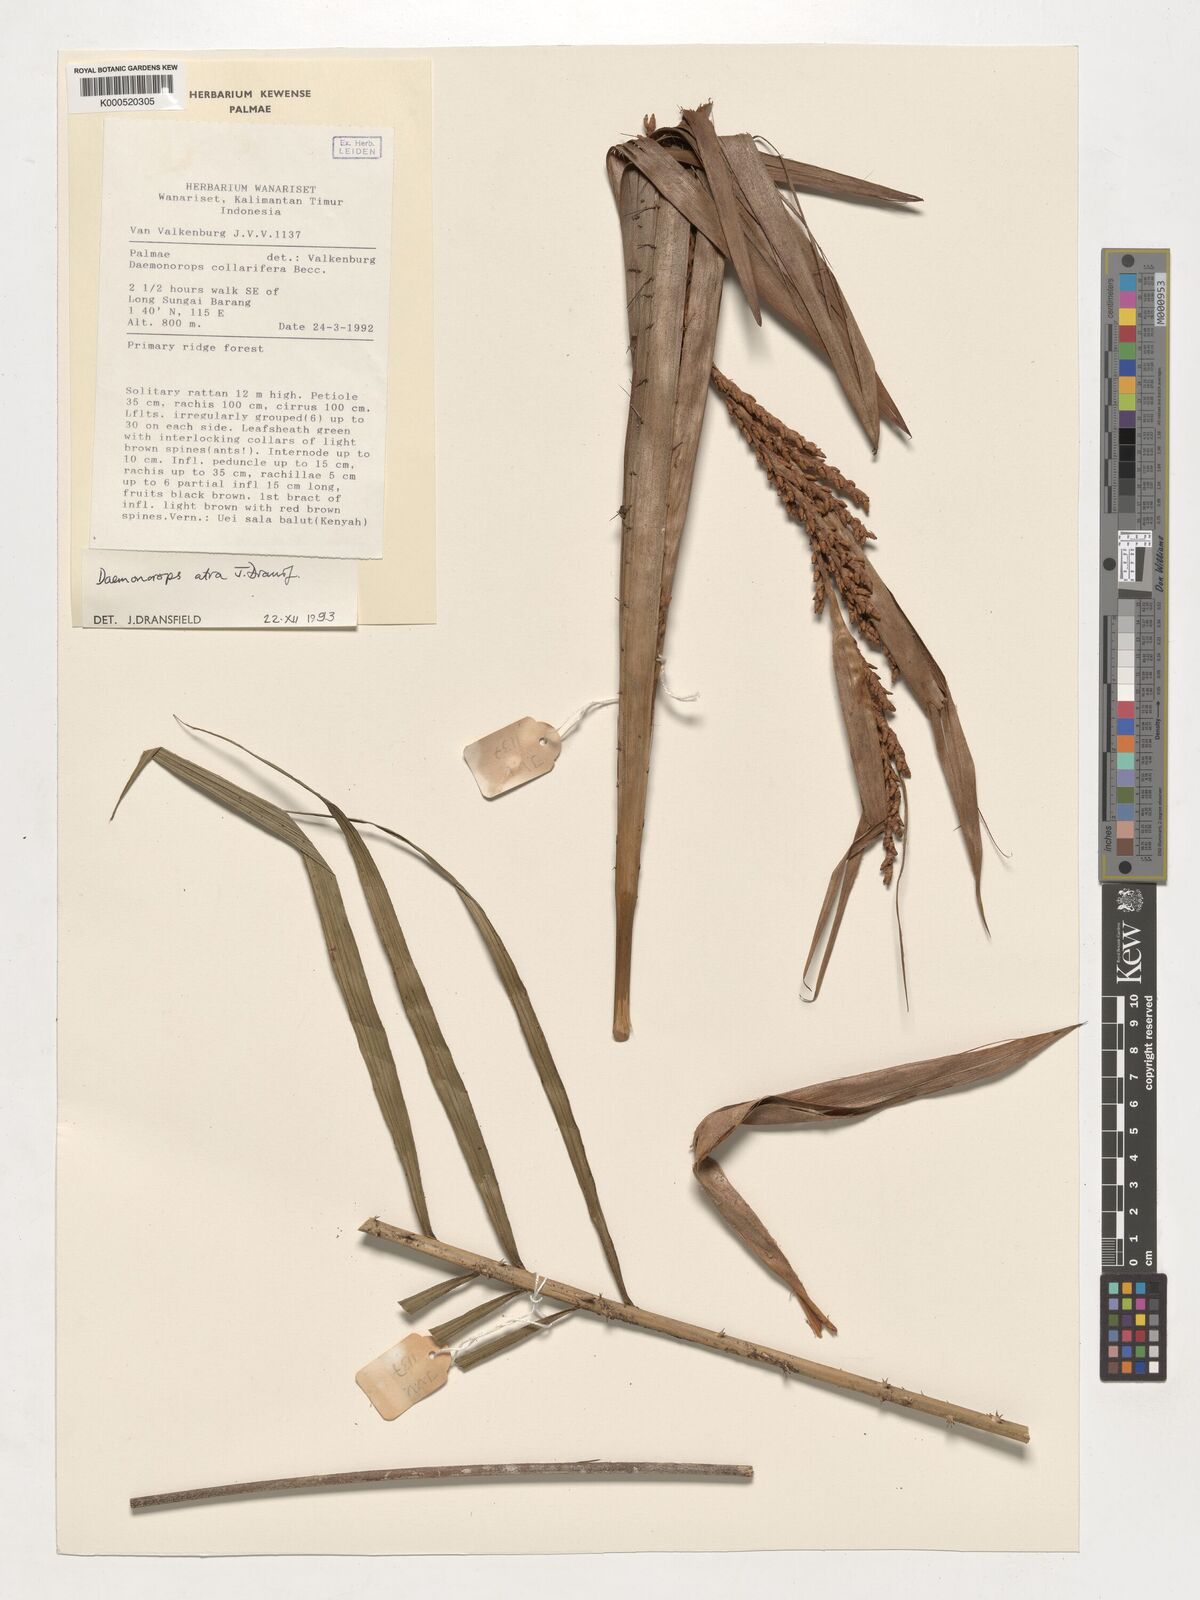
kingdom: Plantae
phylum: Tracheophyta
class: Liliopsida
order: Arecales
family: Arecaceae
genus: Calamus
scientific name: Calamus ater
